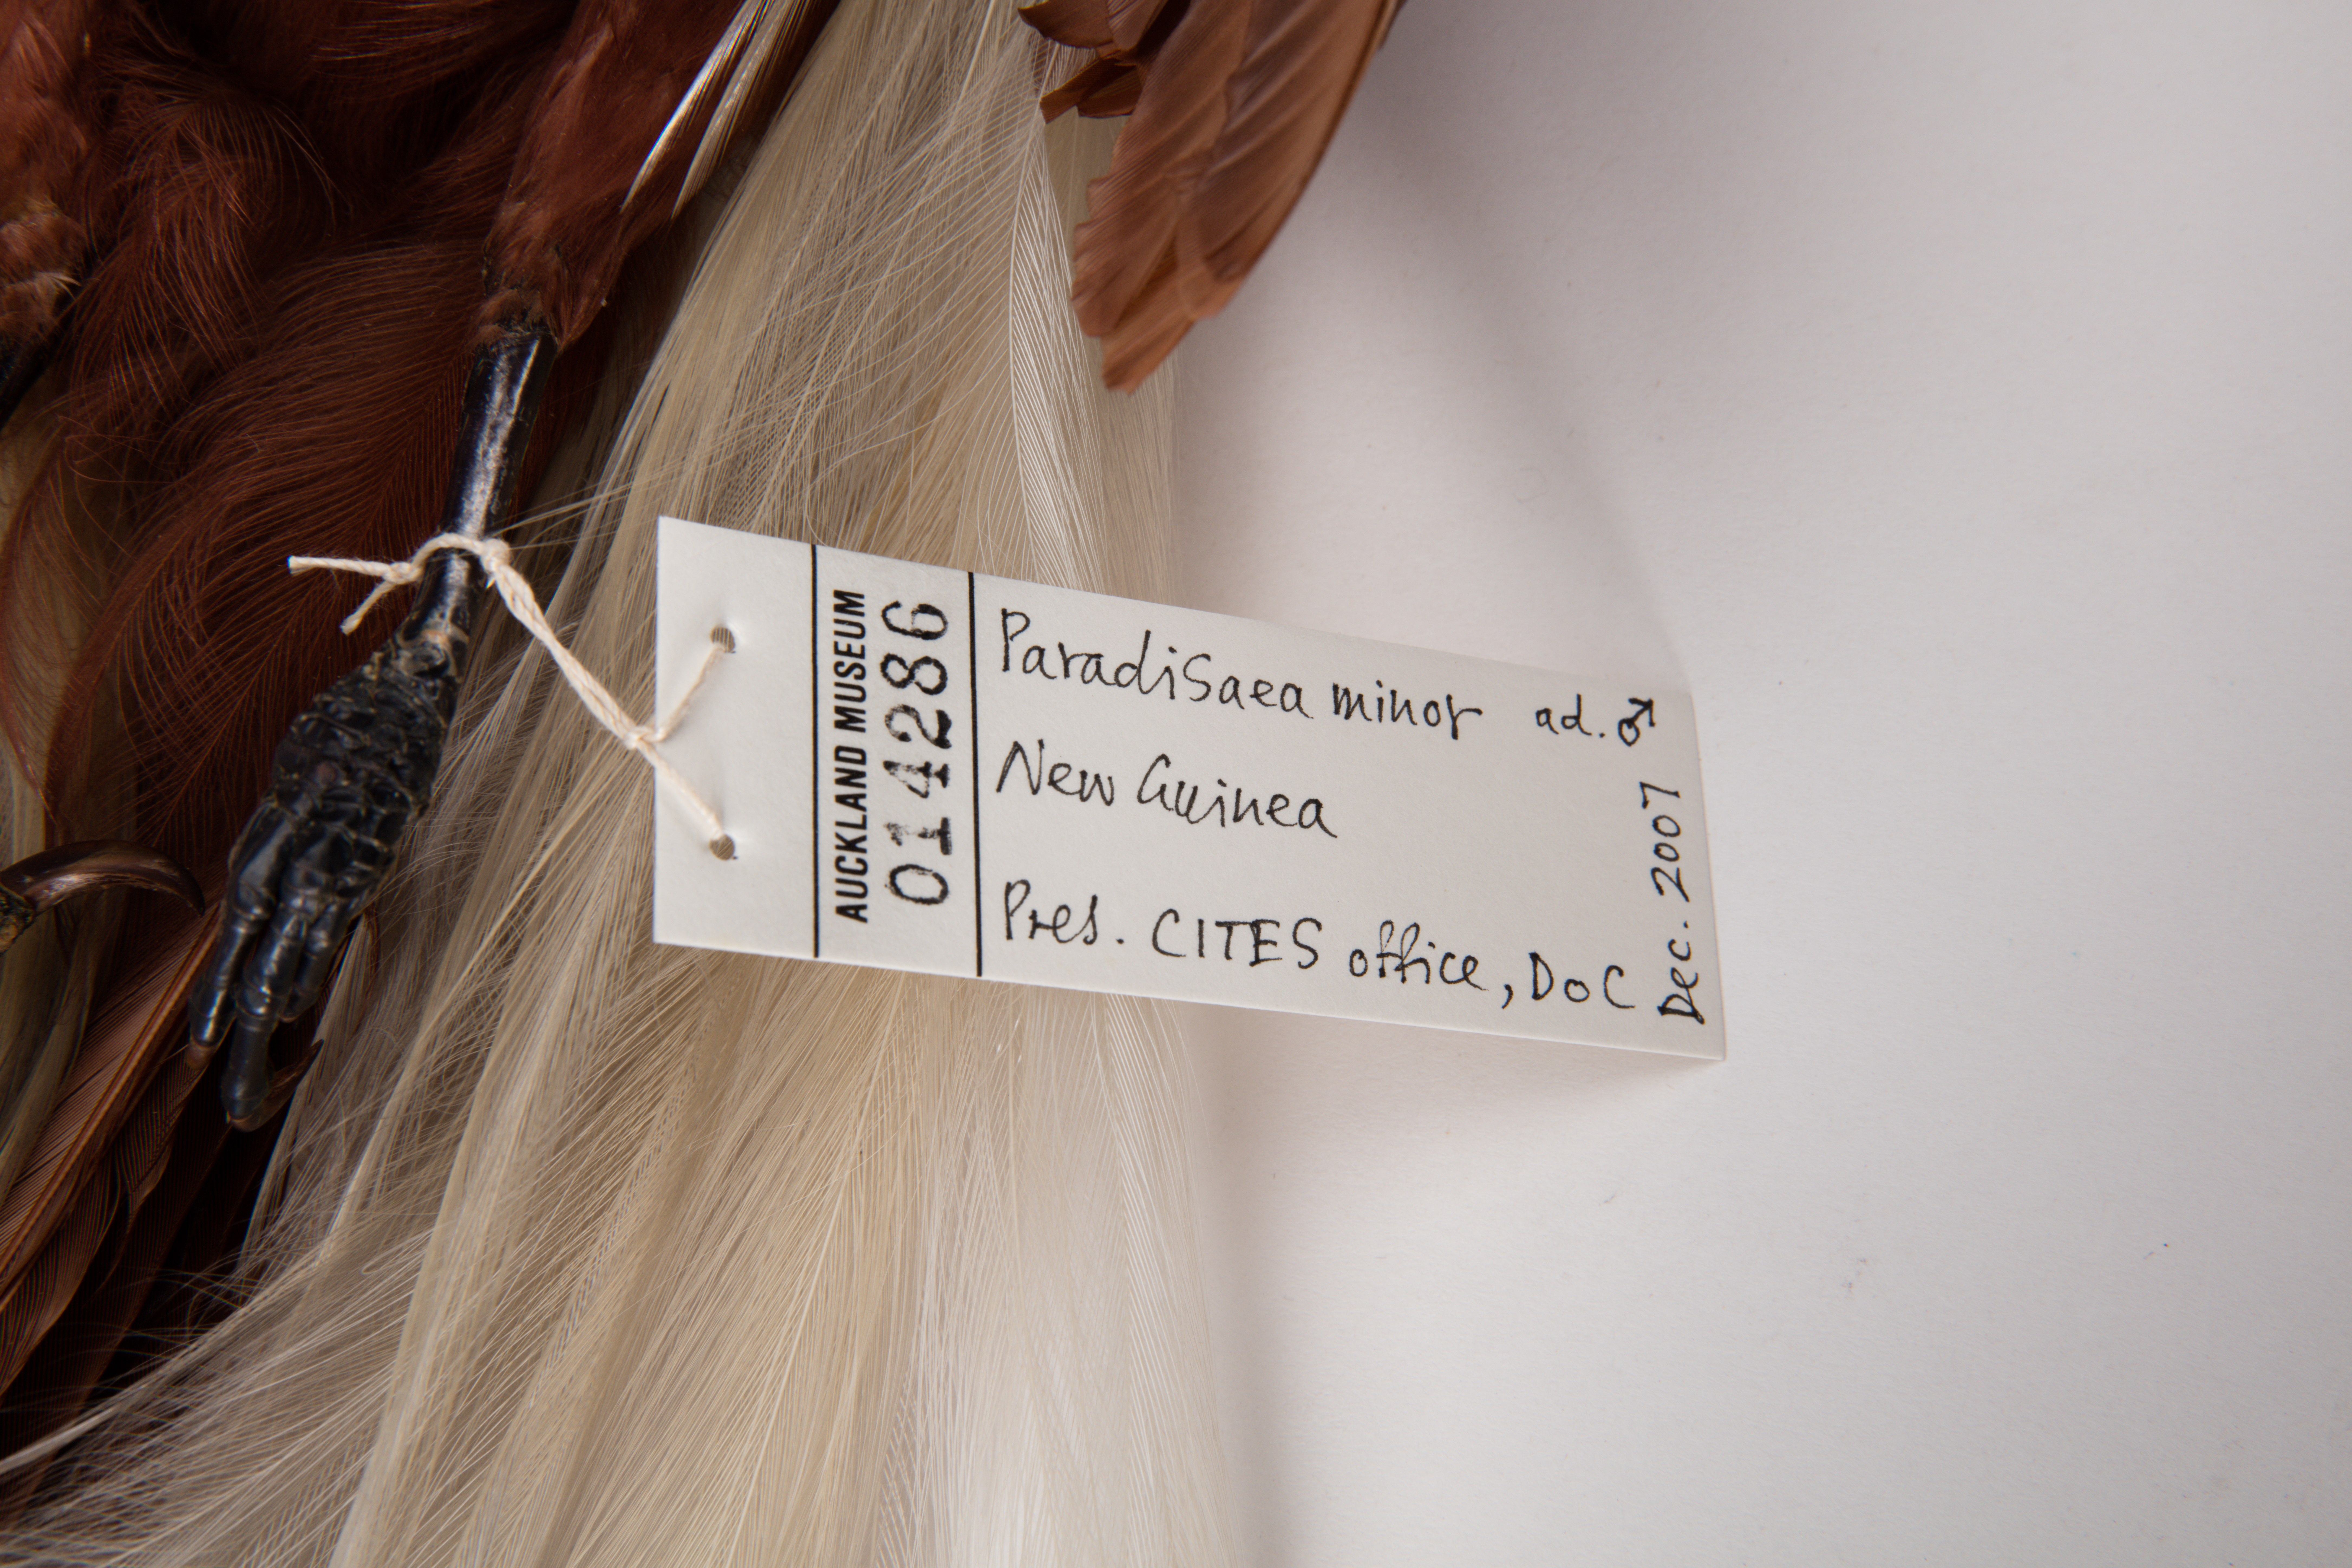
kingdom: Animalia
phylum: Chordata
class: Aves
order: Passeriformes
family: Paradisaeidae
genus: Paradisaea
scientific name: Paradisaea minor
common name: Lesser bird-of-paradise
